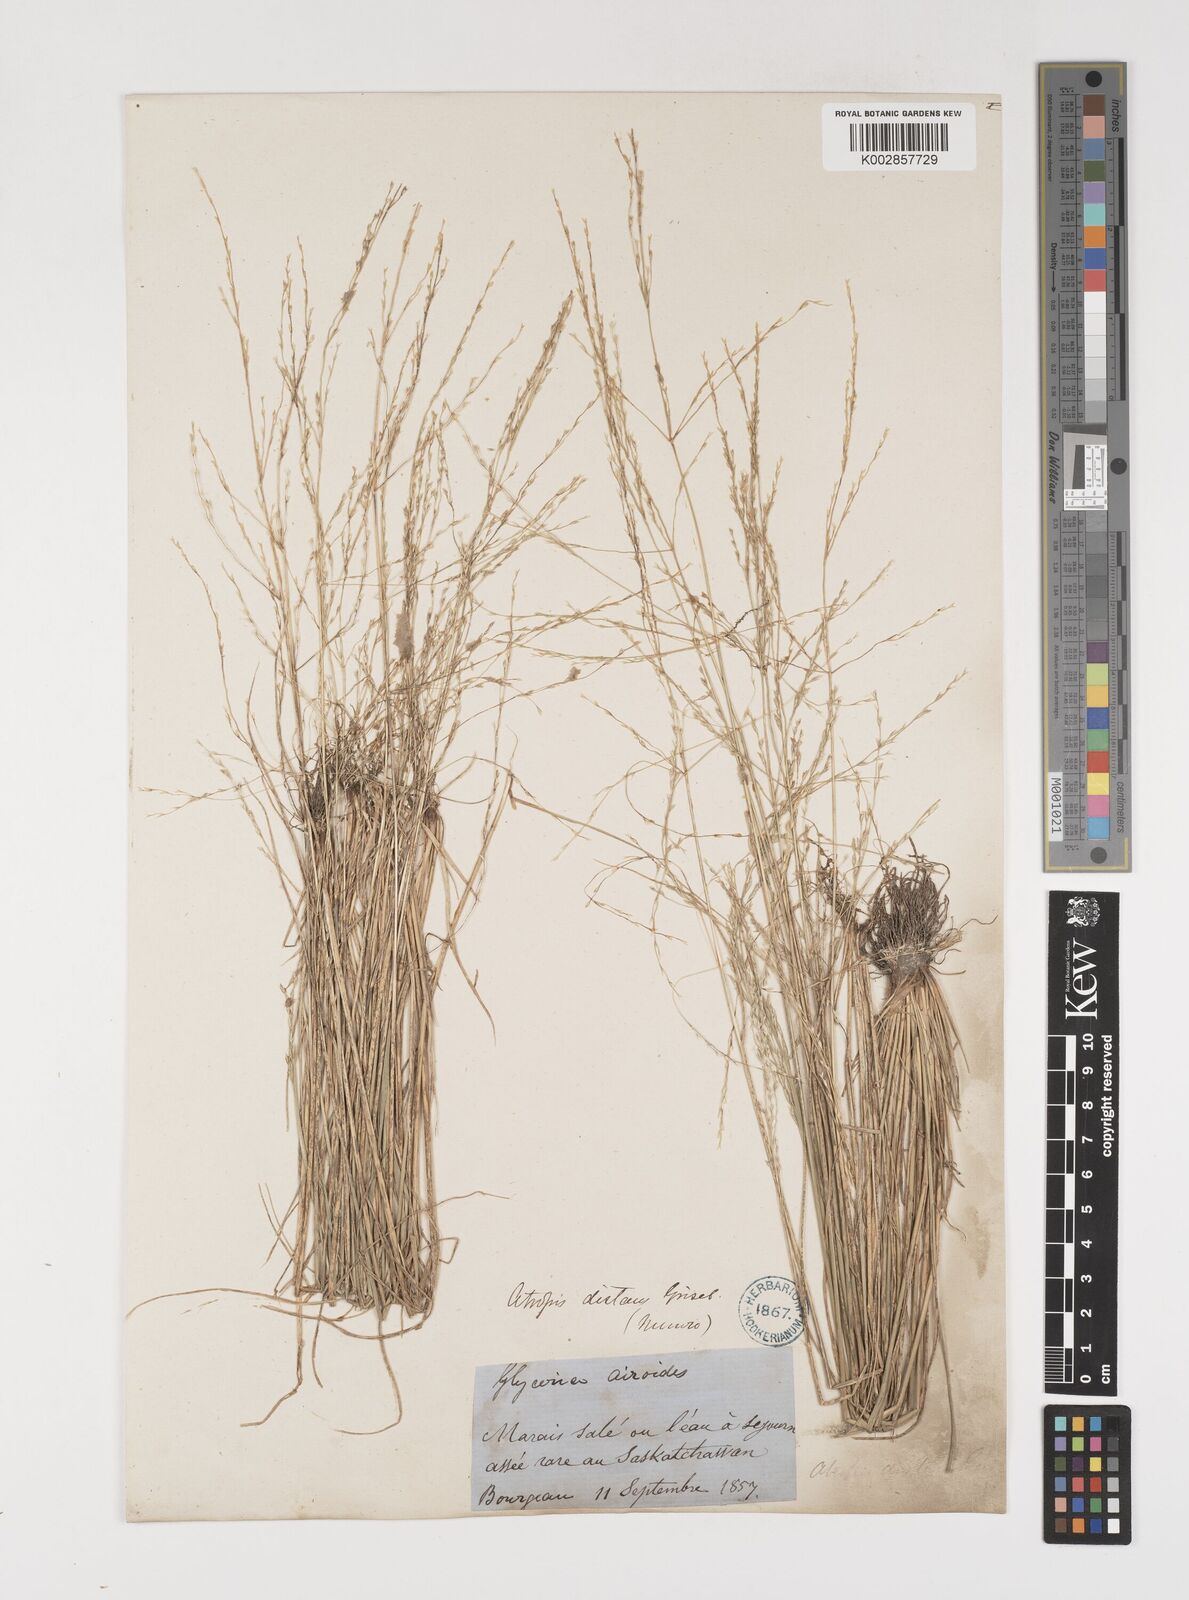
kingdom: Plantae
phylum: Tracheophyta
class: Liliopsida
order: Poales
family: Poaceae
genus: Puccinellia
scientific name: Puccinellia nuttalliana
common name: Nuttall's alkali grass
